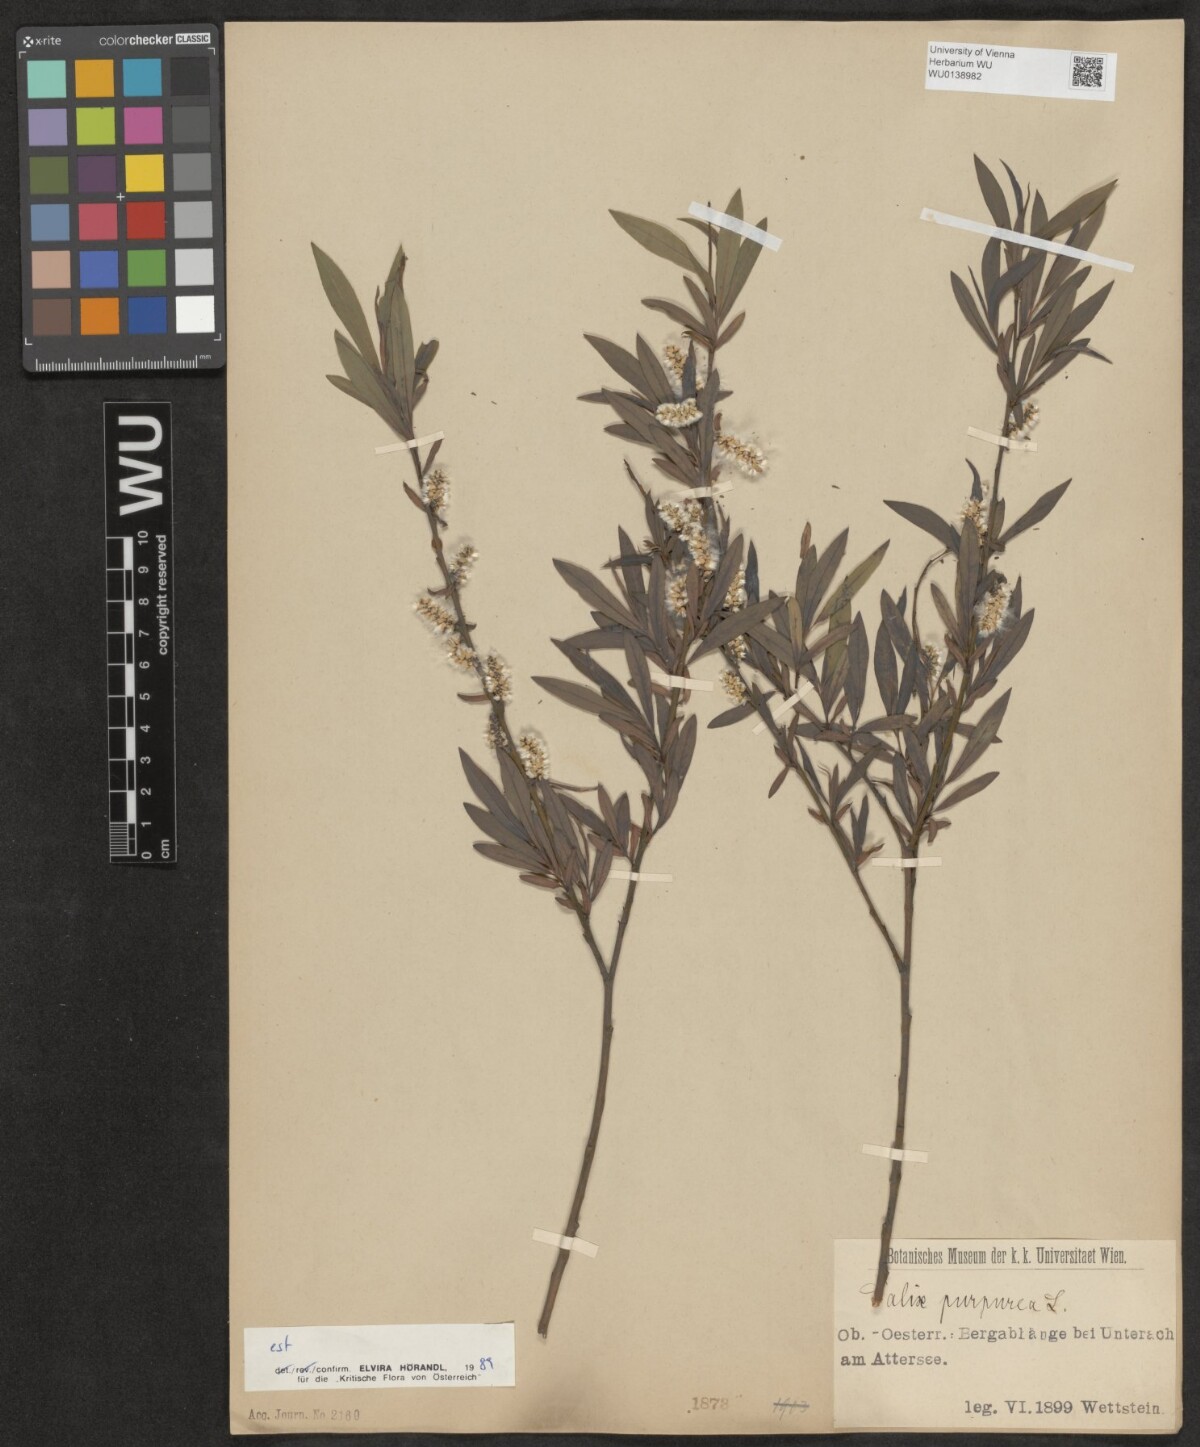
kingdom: Plantae
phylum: Tracheophyta
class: Magnoliopsida
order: Malpighiales
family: Salicaceae
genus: Salix
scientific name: Salix purpurea
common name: Purple willow
